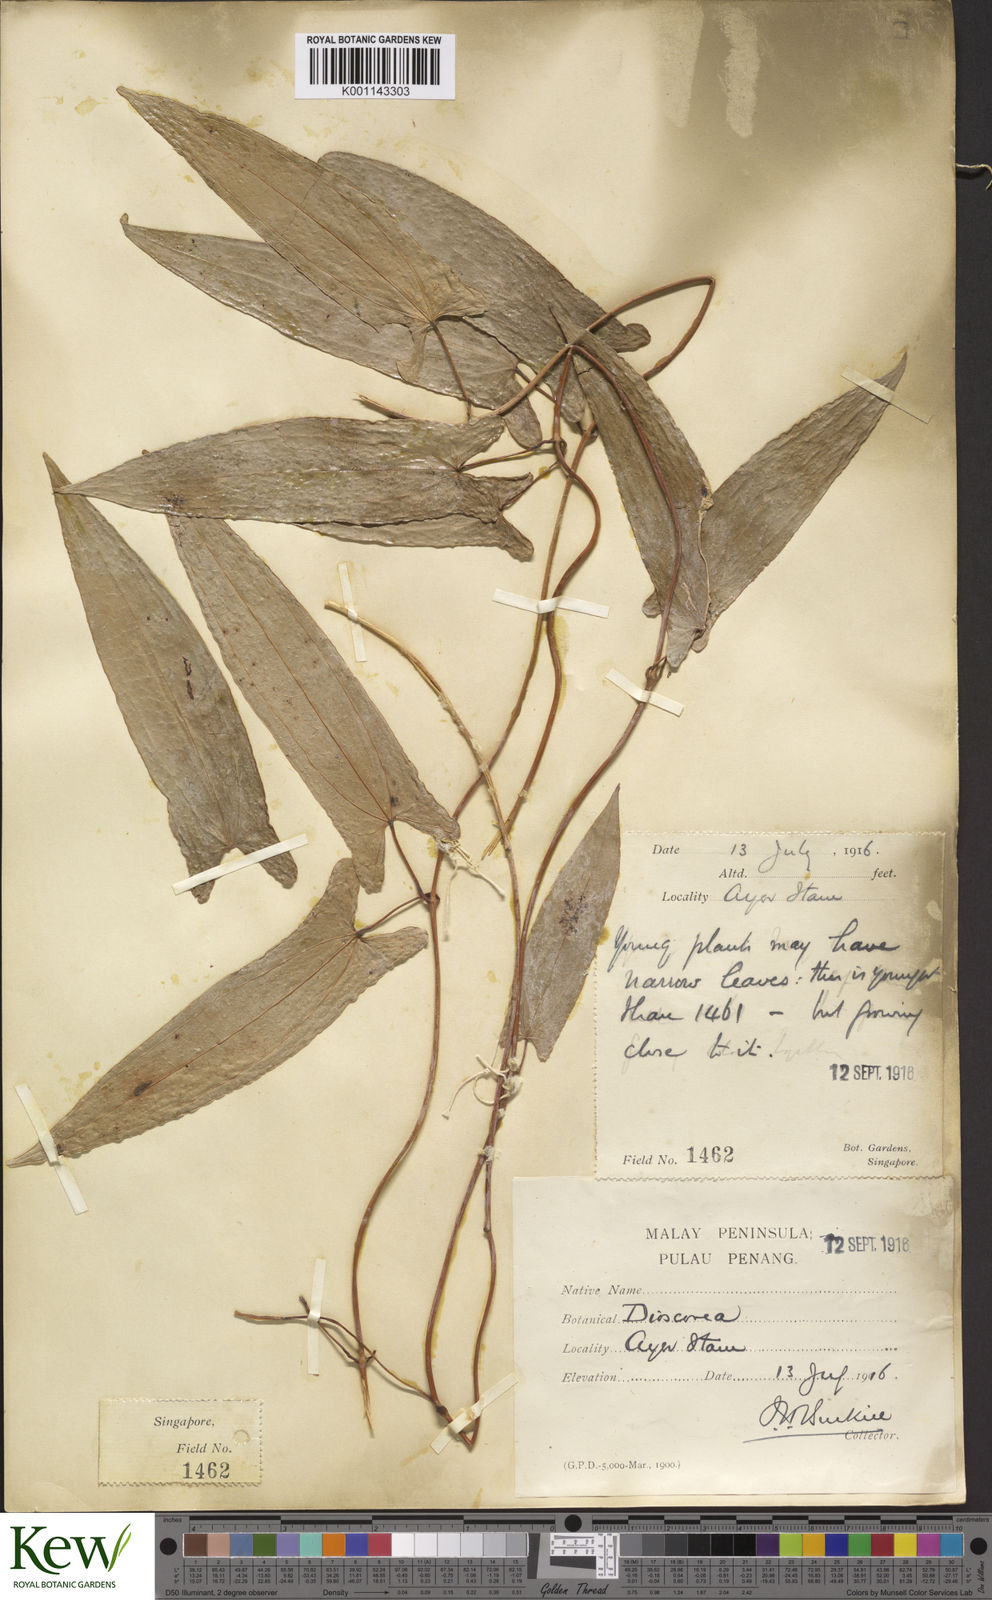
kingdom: Plantae
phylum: Tracheophyta
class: Liliopsida
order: Dioscoreales
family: Dioscoreaceae
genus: Dioscorea
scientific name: Dioscorea glabra
